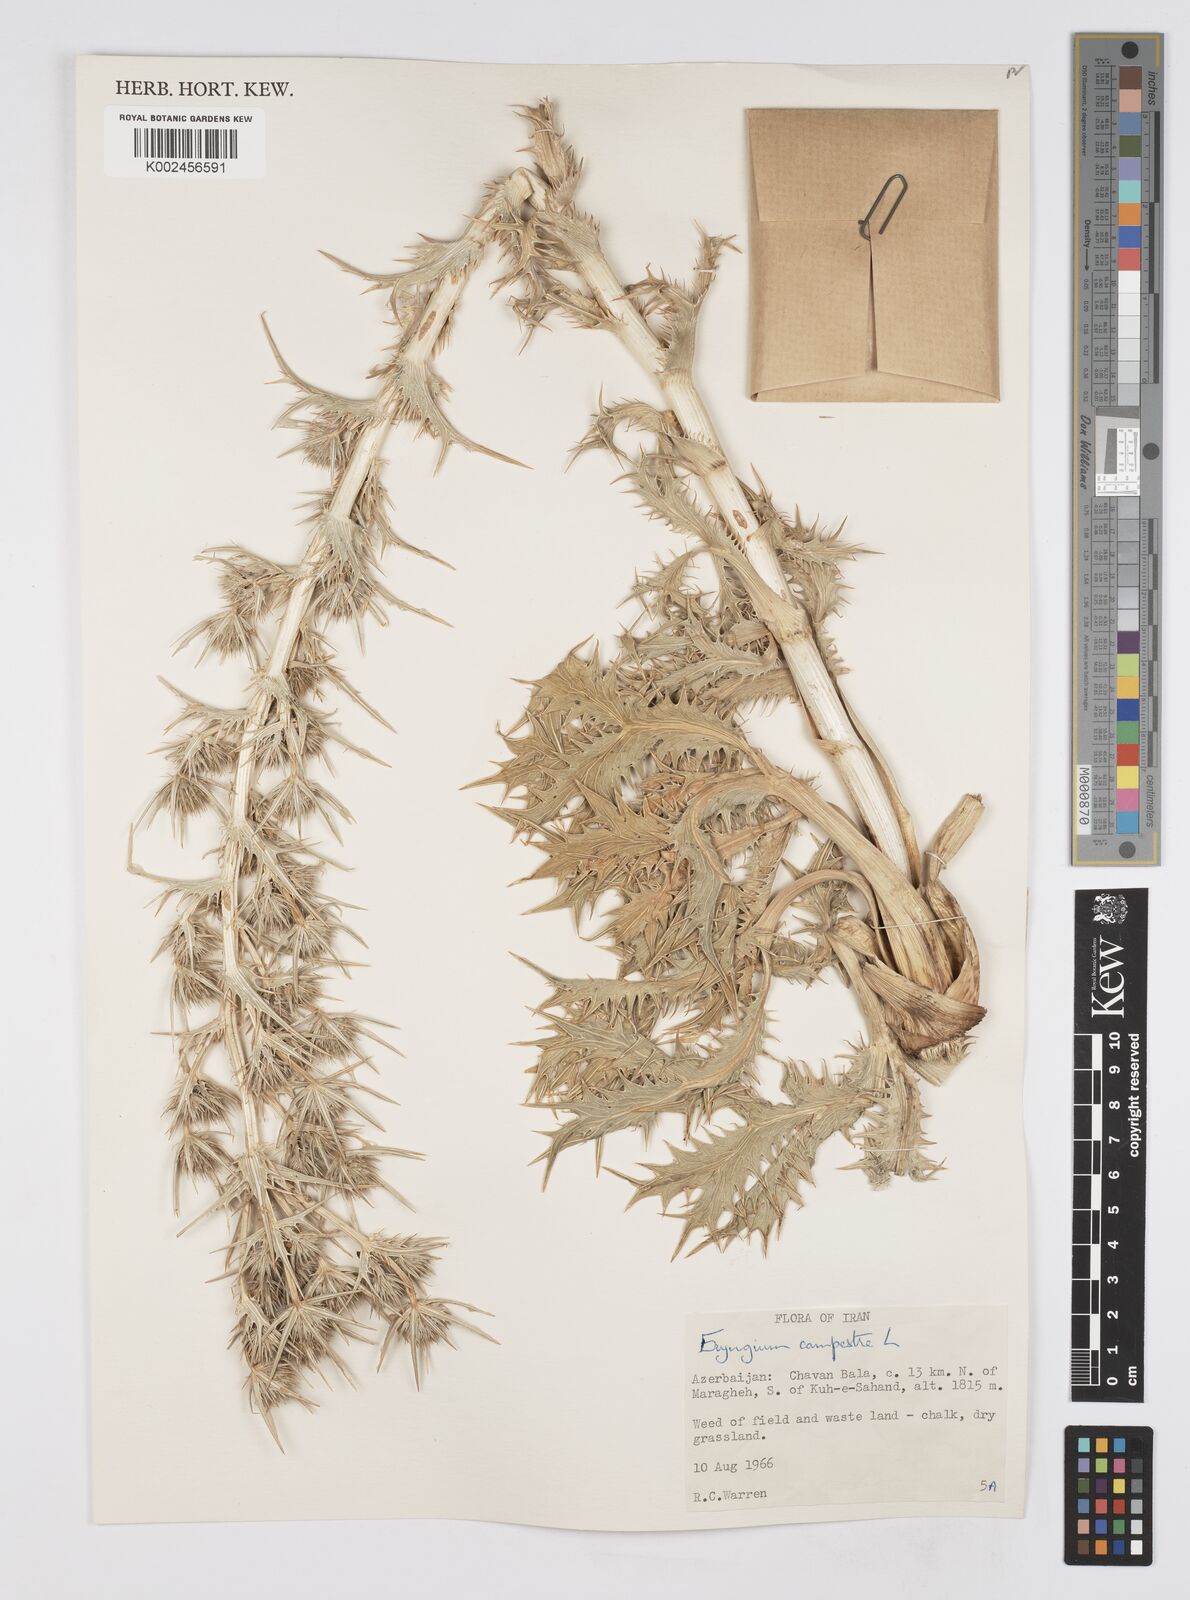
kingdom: Plantae
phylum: Tracheophyta
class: Magnoliopsida
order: Apiales
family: Apiaceae
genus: Eryngium
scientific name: Eryngium campestre
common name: Field eryngo
